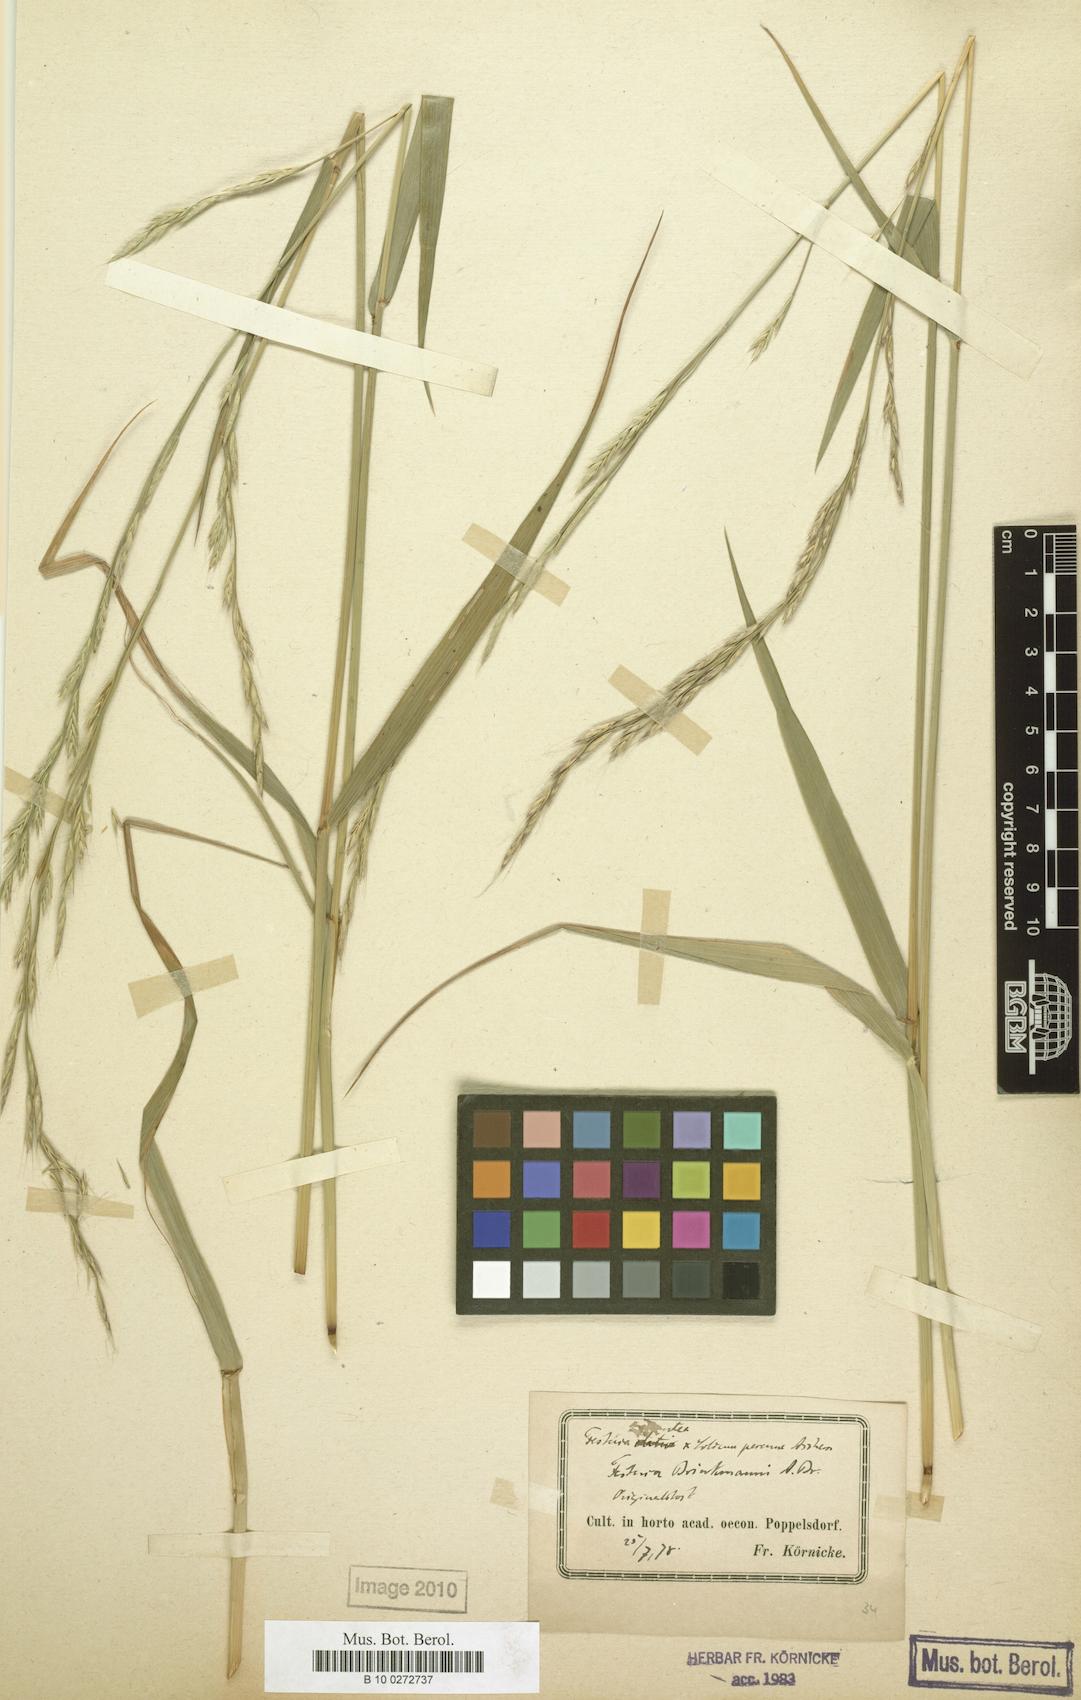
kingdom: Plantae
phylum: Tracheophyta
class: Liliopsida
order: Poales
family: Poaceae
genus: Lolium
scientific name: Lolium brinkmannii
